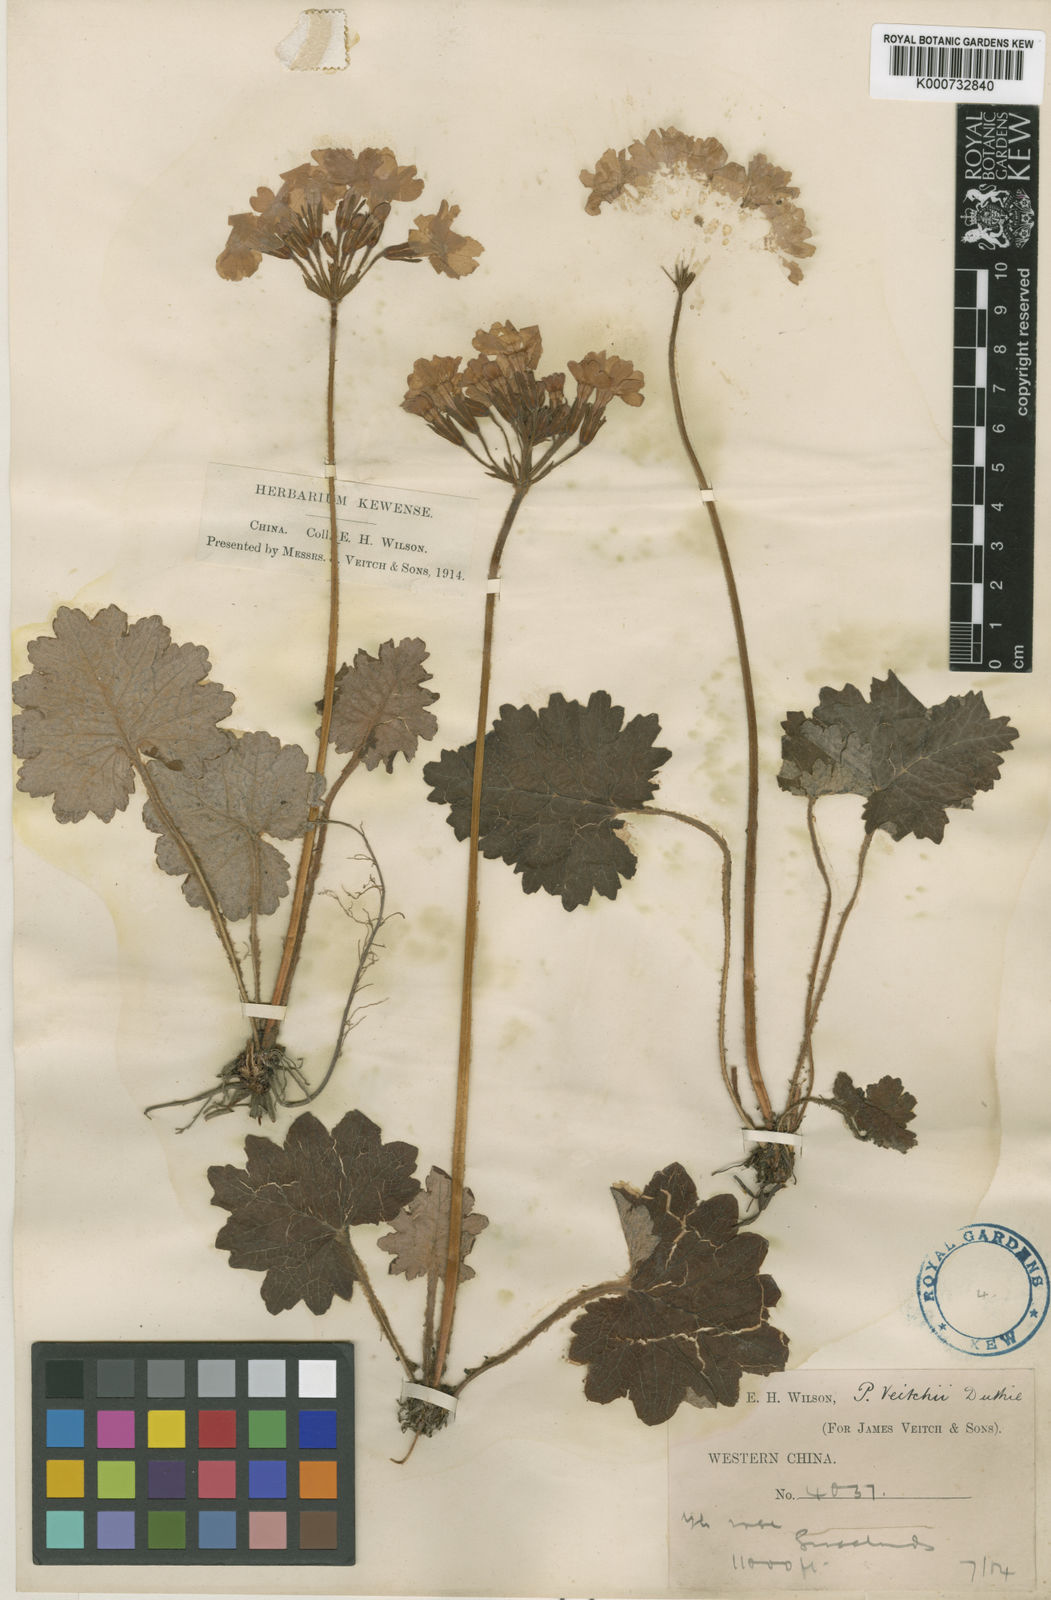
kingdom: Plantae
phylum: Tracheophyta
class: Magnoliopsida
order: Ericales
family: Primulaceae
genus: Primula
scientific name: Primula polyneura
